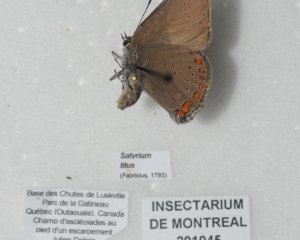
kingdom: Animalia
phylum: Arthropoda
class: Insecta
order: Lepidoptera
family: Lycaenidae
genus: Harkenclenus
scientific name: Harkenclenus titus
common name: Coral Hairstreak
